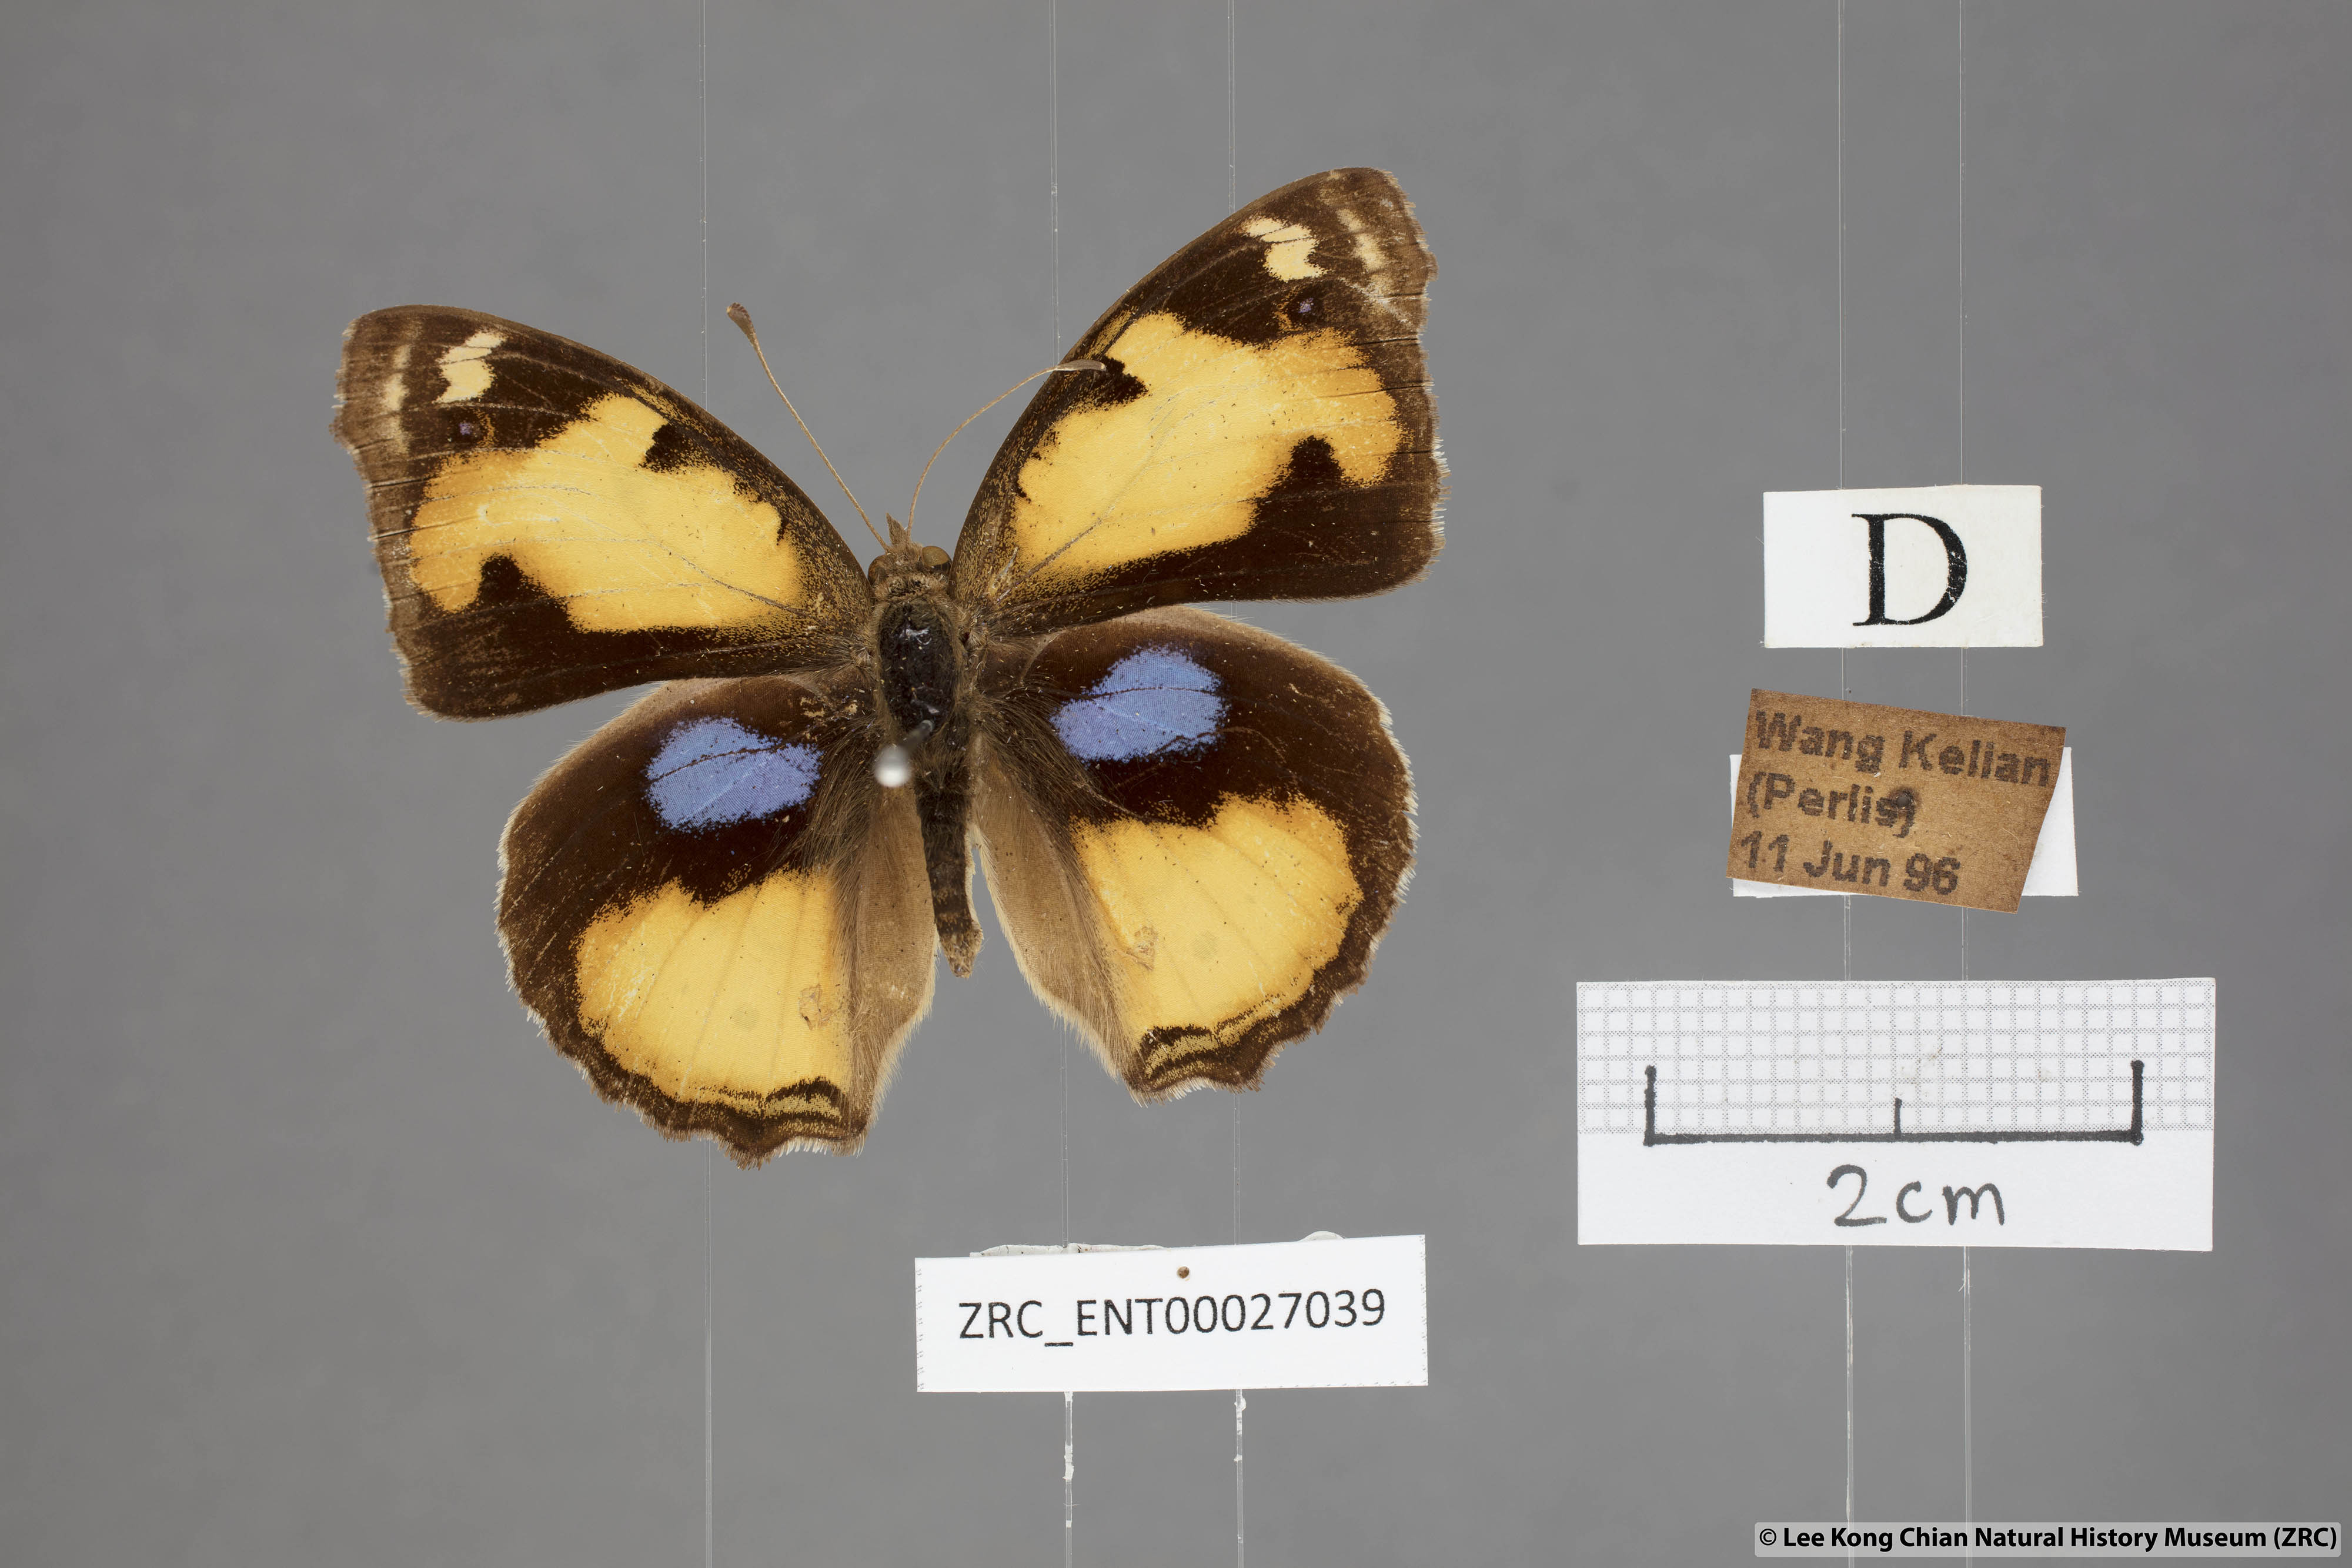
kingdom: Animalia
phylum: Arthropoda
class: Insecta
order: Lepidoptera
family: Nymphalidae
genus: Junonia
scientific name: Junonia hierta
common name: Yellow pansy
